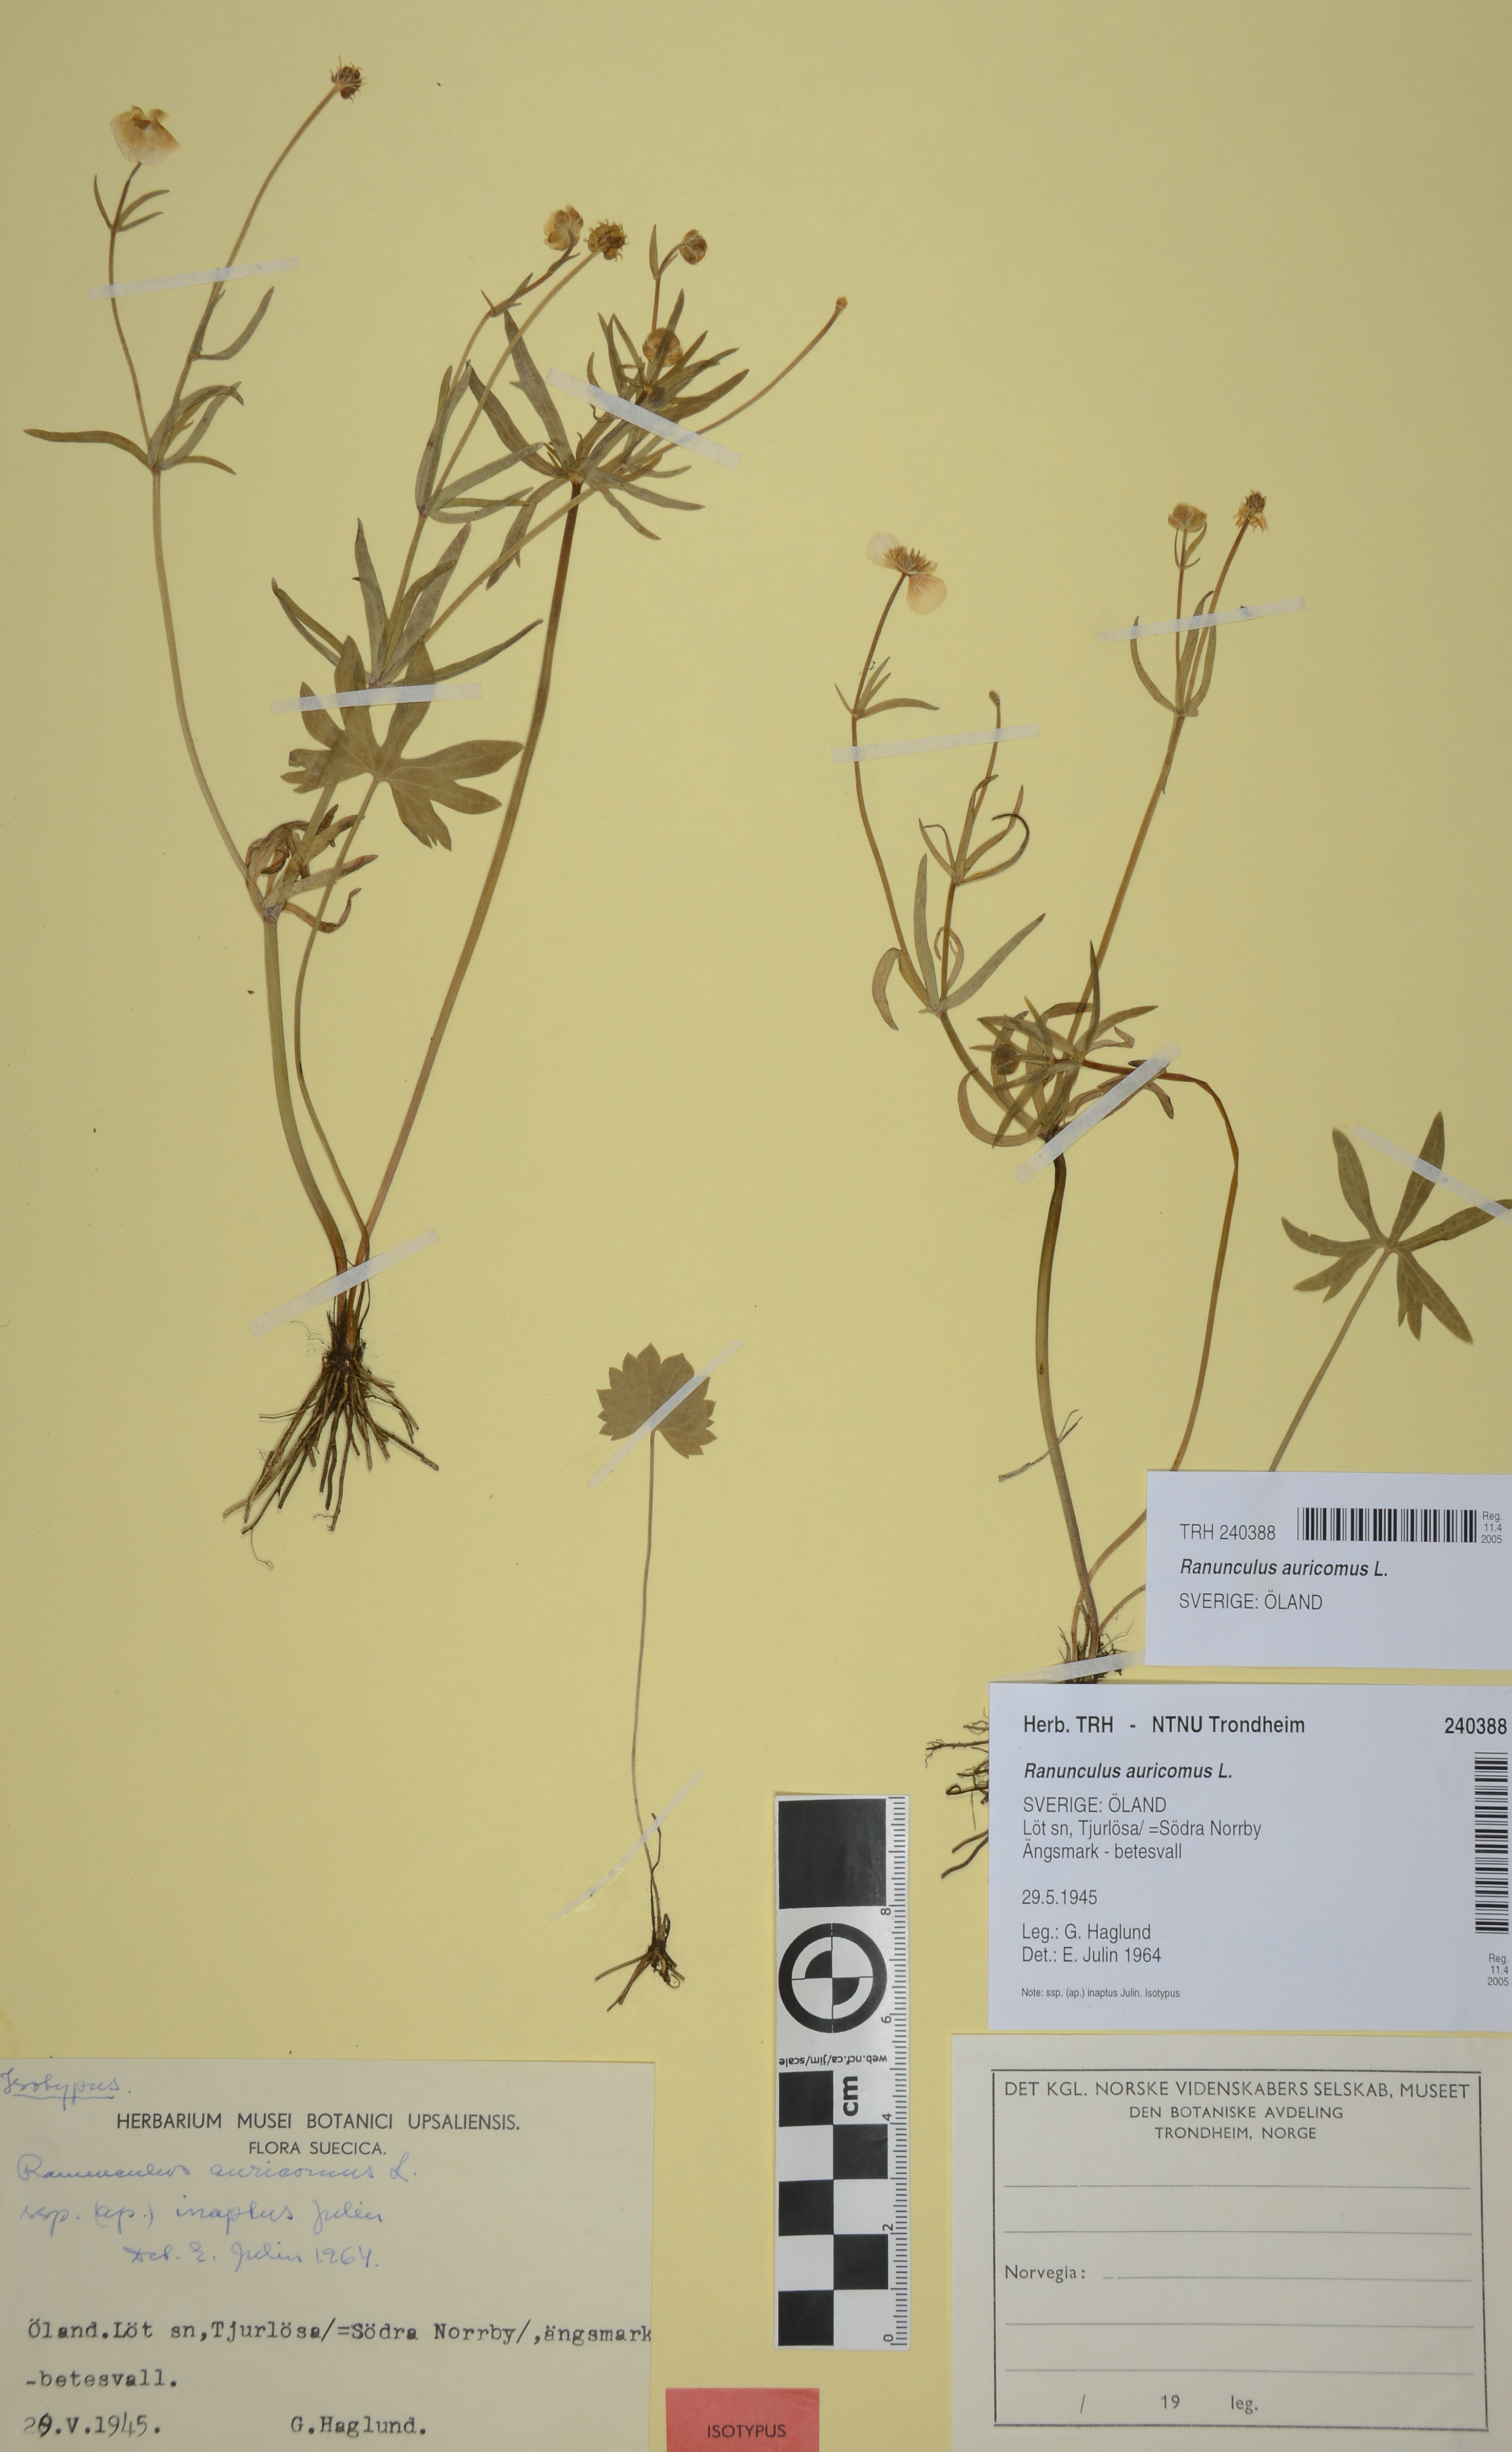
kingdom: Plantae
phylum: Tracheophyta
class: Magnoliopsida
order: Ranunculales
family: Ranunculaceae
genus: Ranunculus
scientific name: Ranunculus auricomus
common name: Goldilocks buttercup
